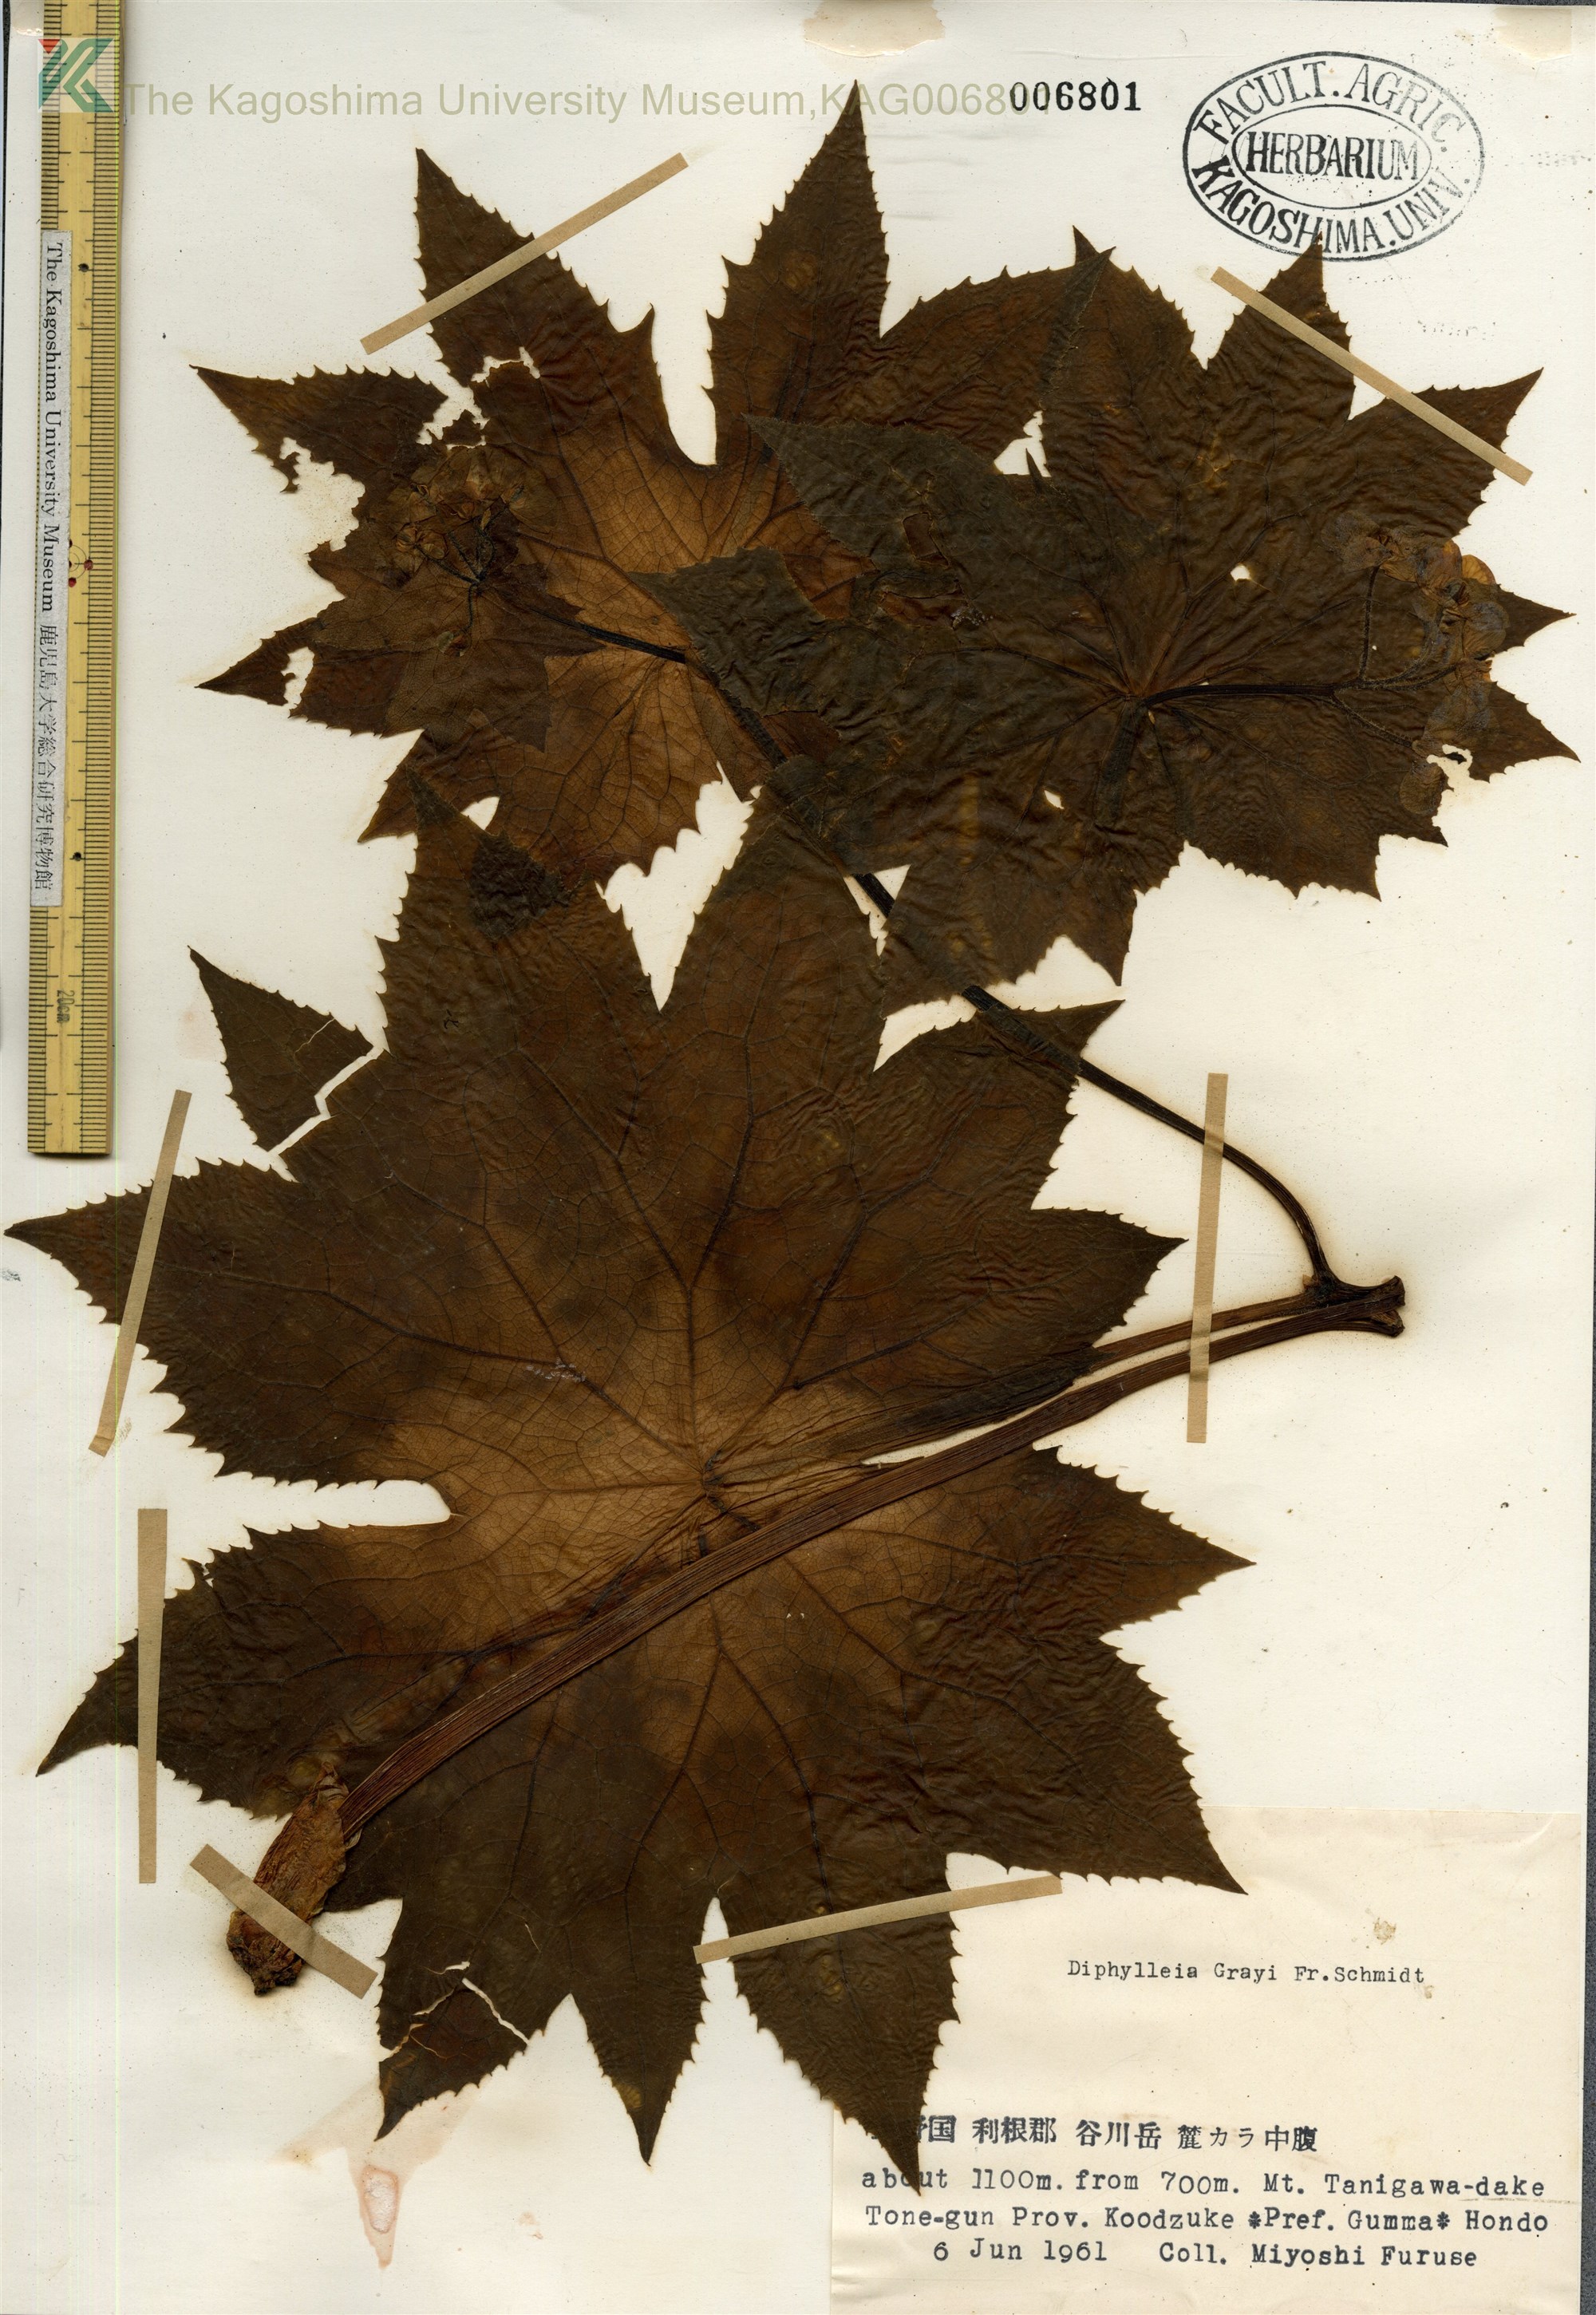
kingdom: Plantae
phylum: Tracheophyta
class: Magnoliopsida
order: Ranunculales
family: Berberidaceae
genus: Diphylleia
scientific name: Diphylleia grayi
